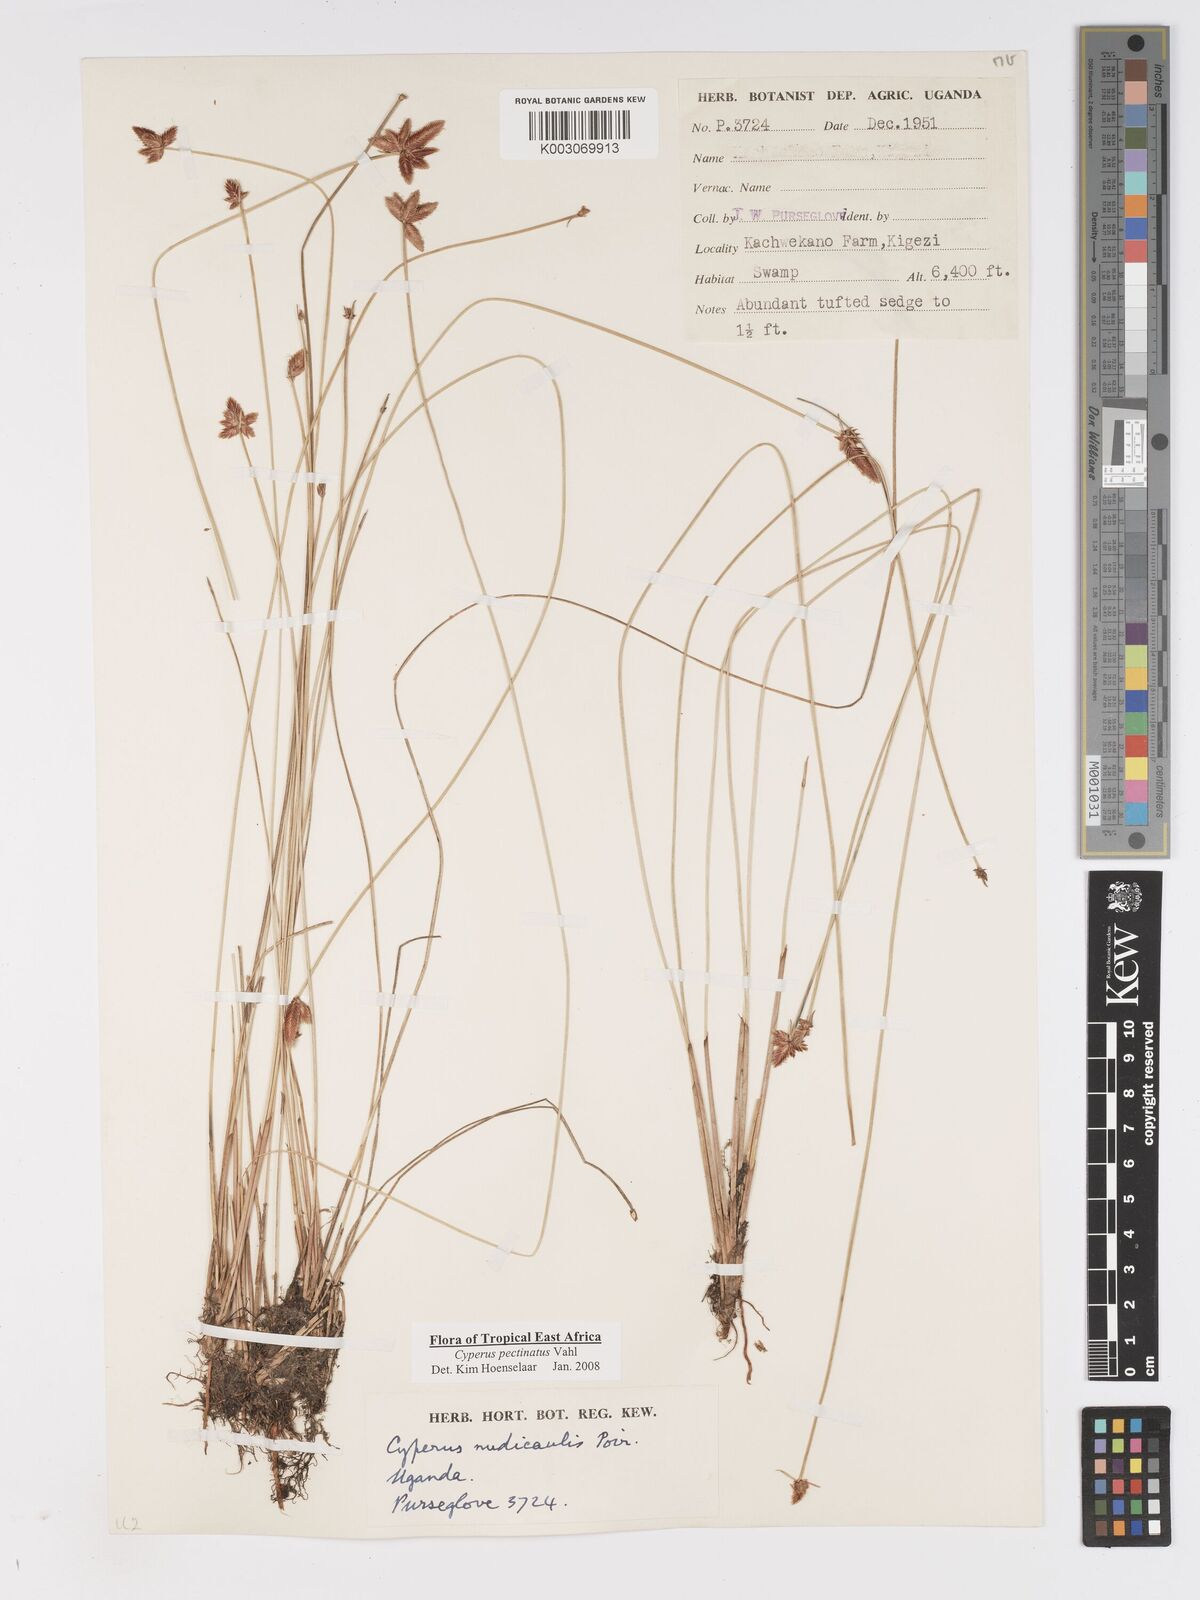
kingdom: Plantae
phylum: Tracheophyta
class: Liliopsida
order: Poales
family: Cyperaceae
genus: Cyperus
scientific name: Cyperus pectinatus
